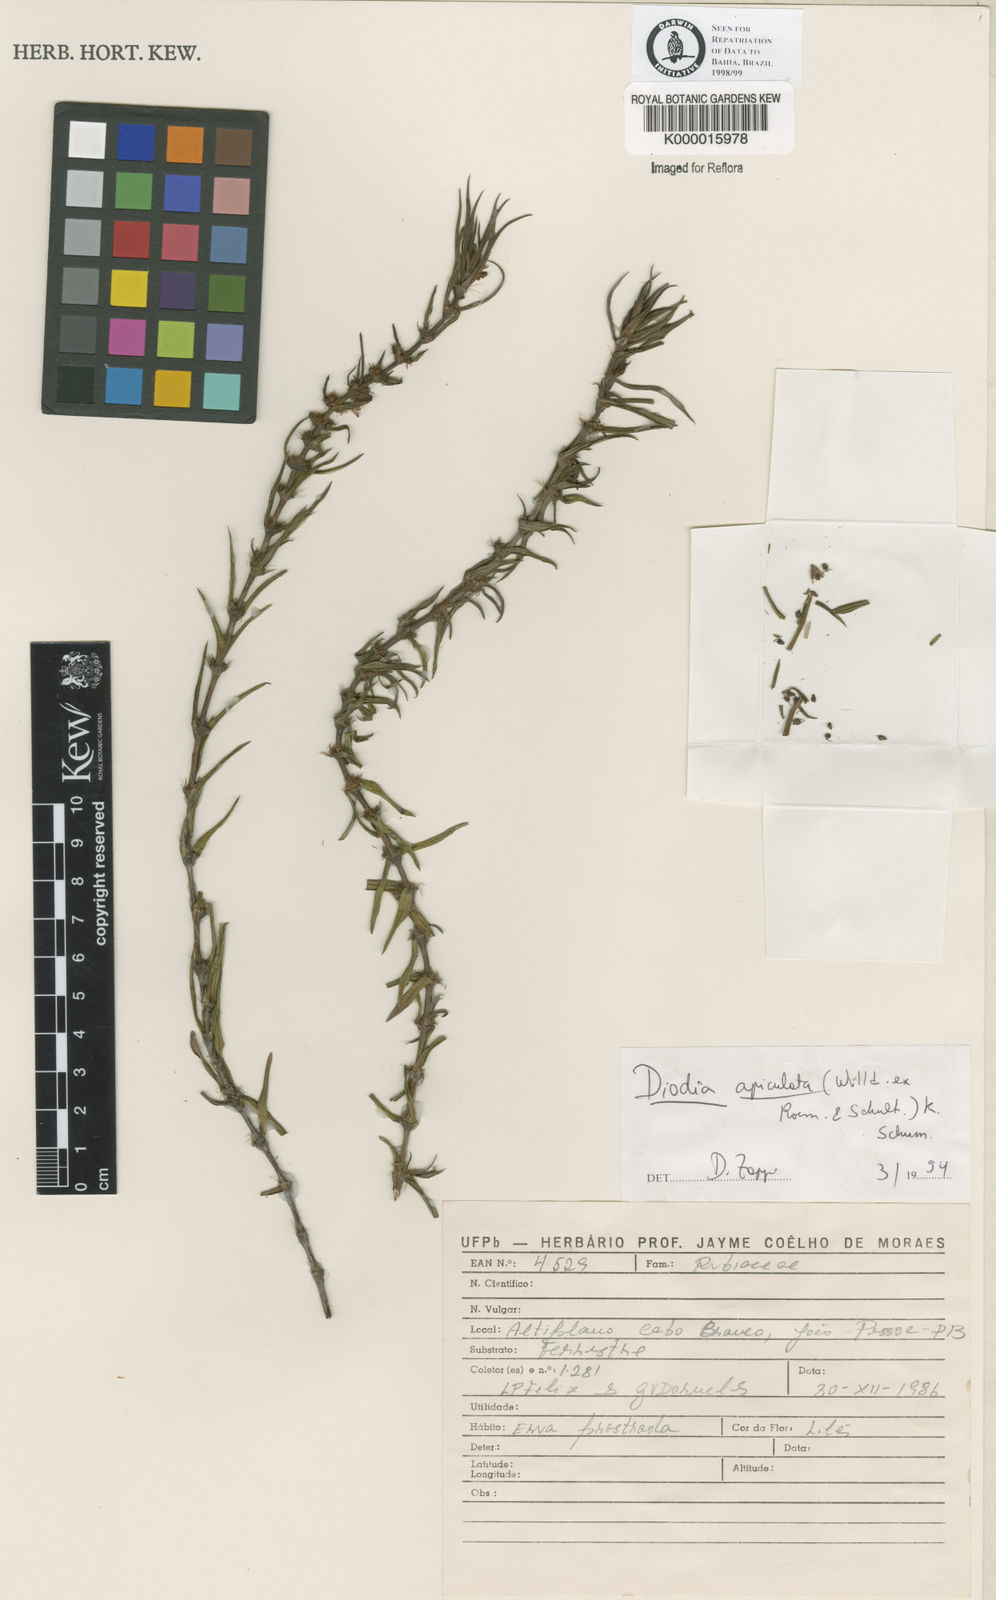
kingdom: Plantae
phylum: Tracheophyta
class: Magnoliopsida
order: Gentianales
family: Rubiaceae
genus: Hexasepalum
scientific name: Hexasepalum apiculatum
